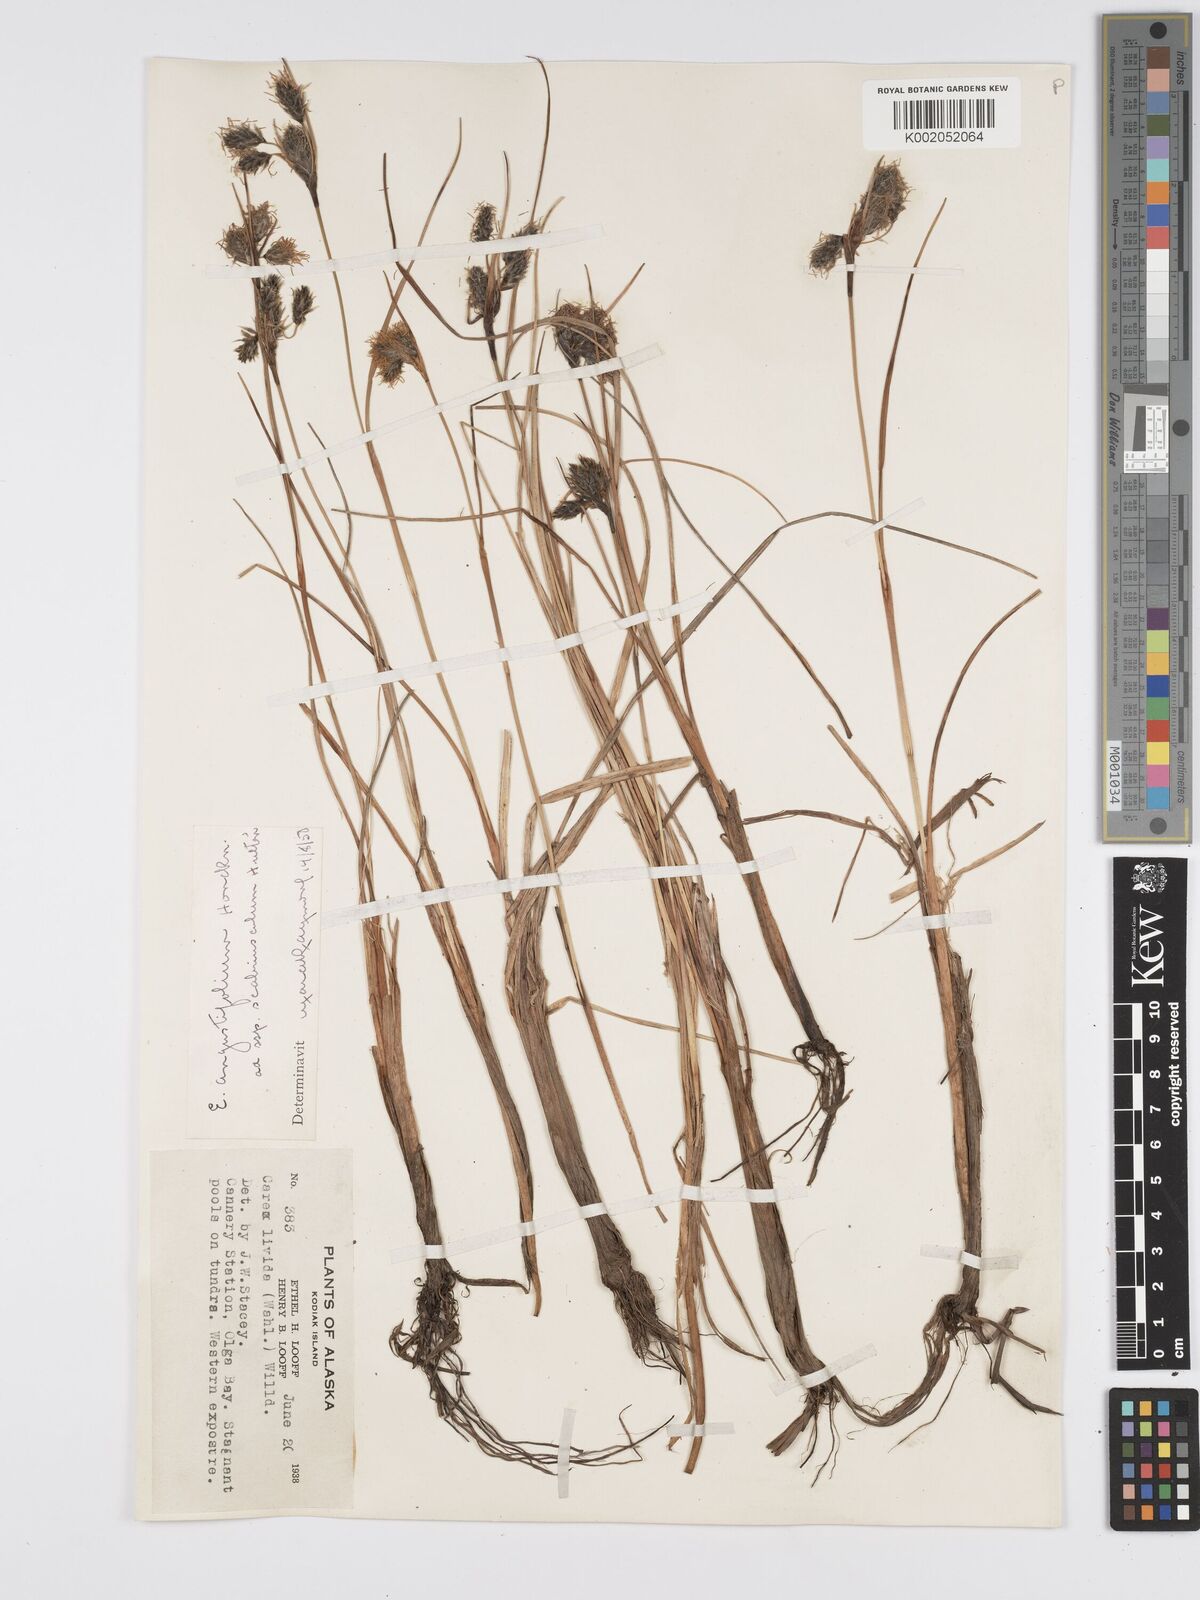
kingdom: Plantae
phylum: Tracheophyta
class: Liliopsida
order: Poales
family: Cyperaceae
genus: Eriophorum
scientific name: Eriophorum
